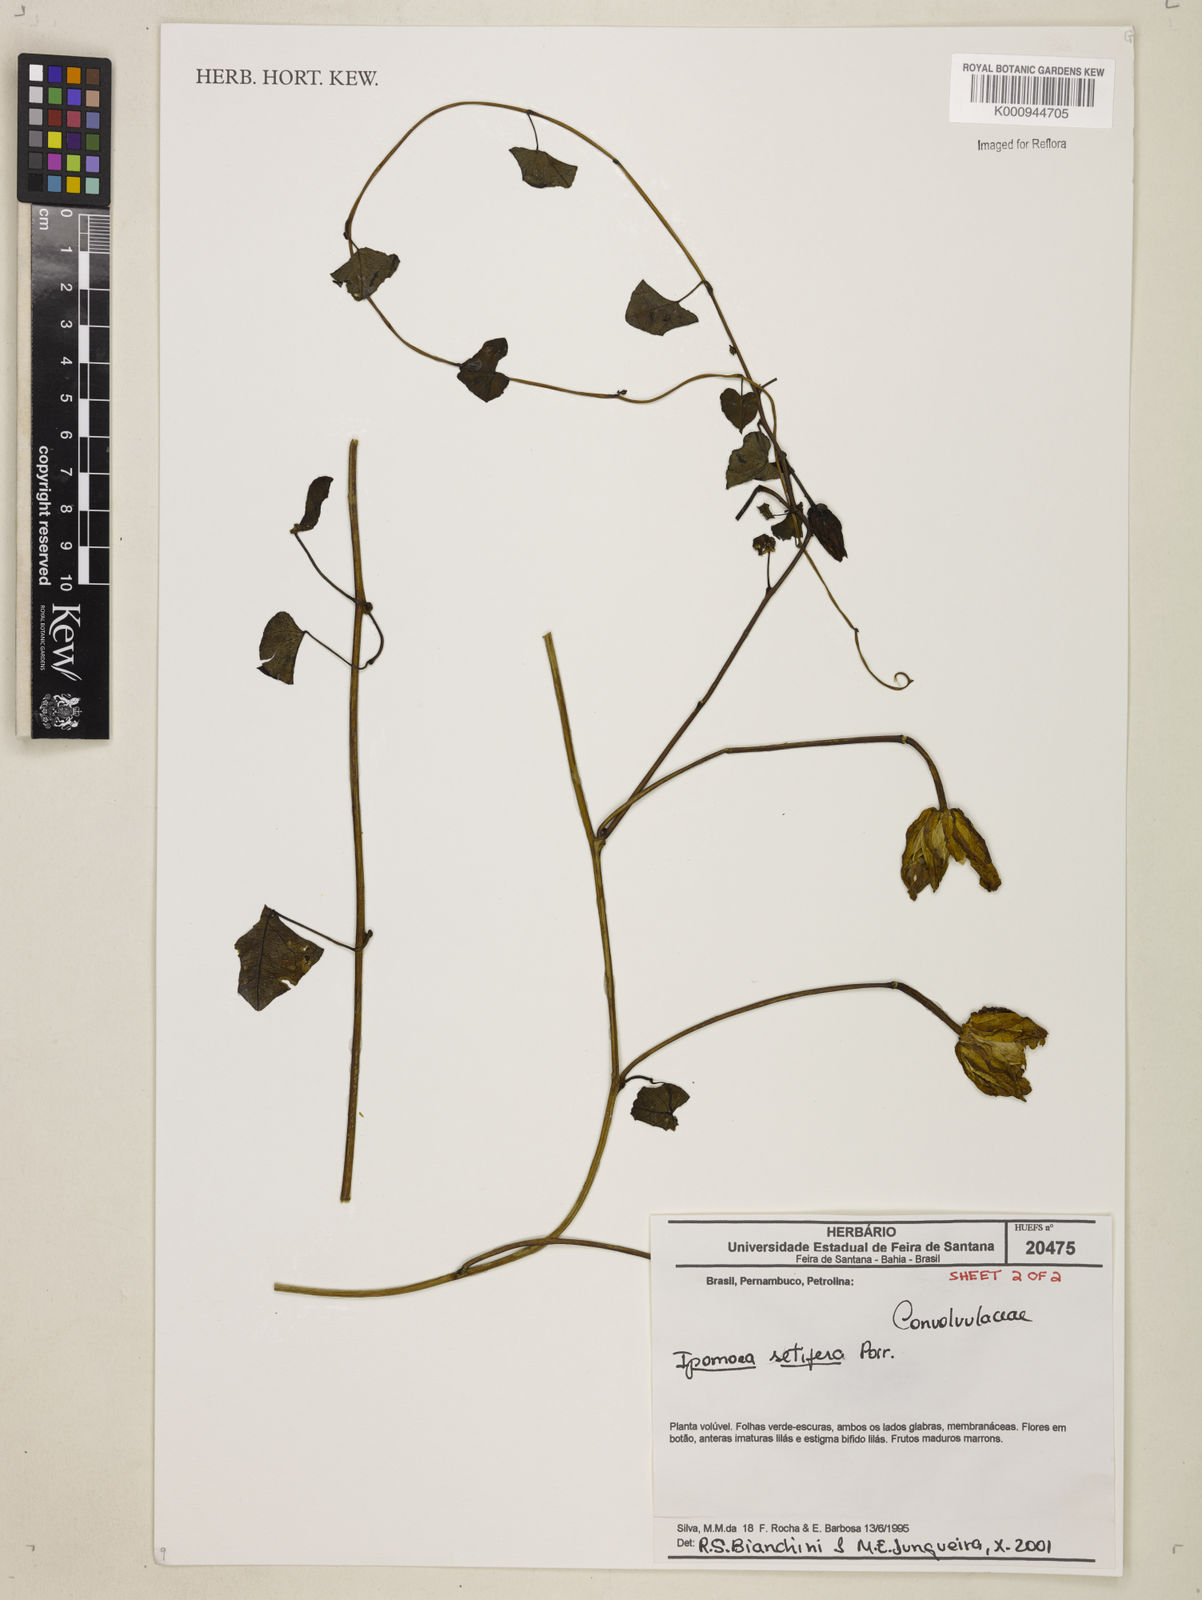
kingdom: Plantae
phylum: Tracheophyta
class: Magnoliopsida
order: Solanales
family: Convolvulaceae
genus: Ipomoea
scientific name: Ipomoea setifera
